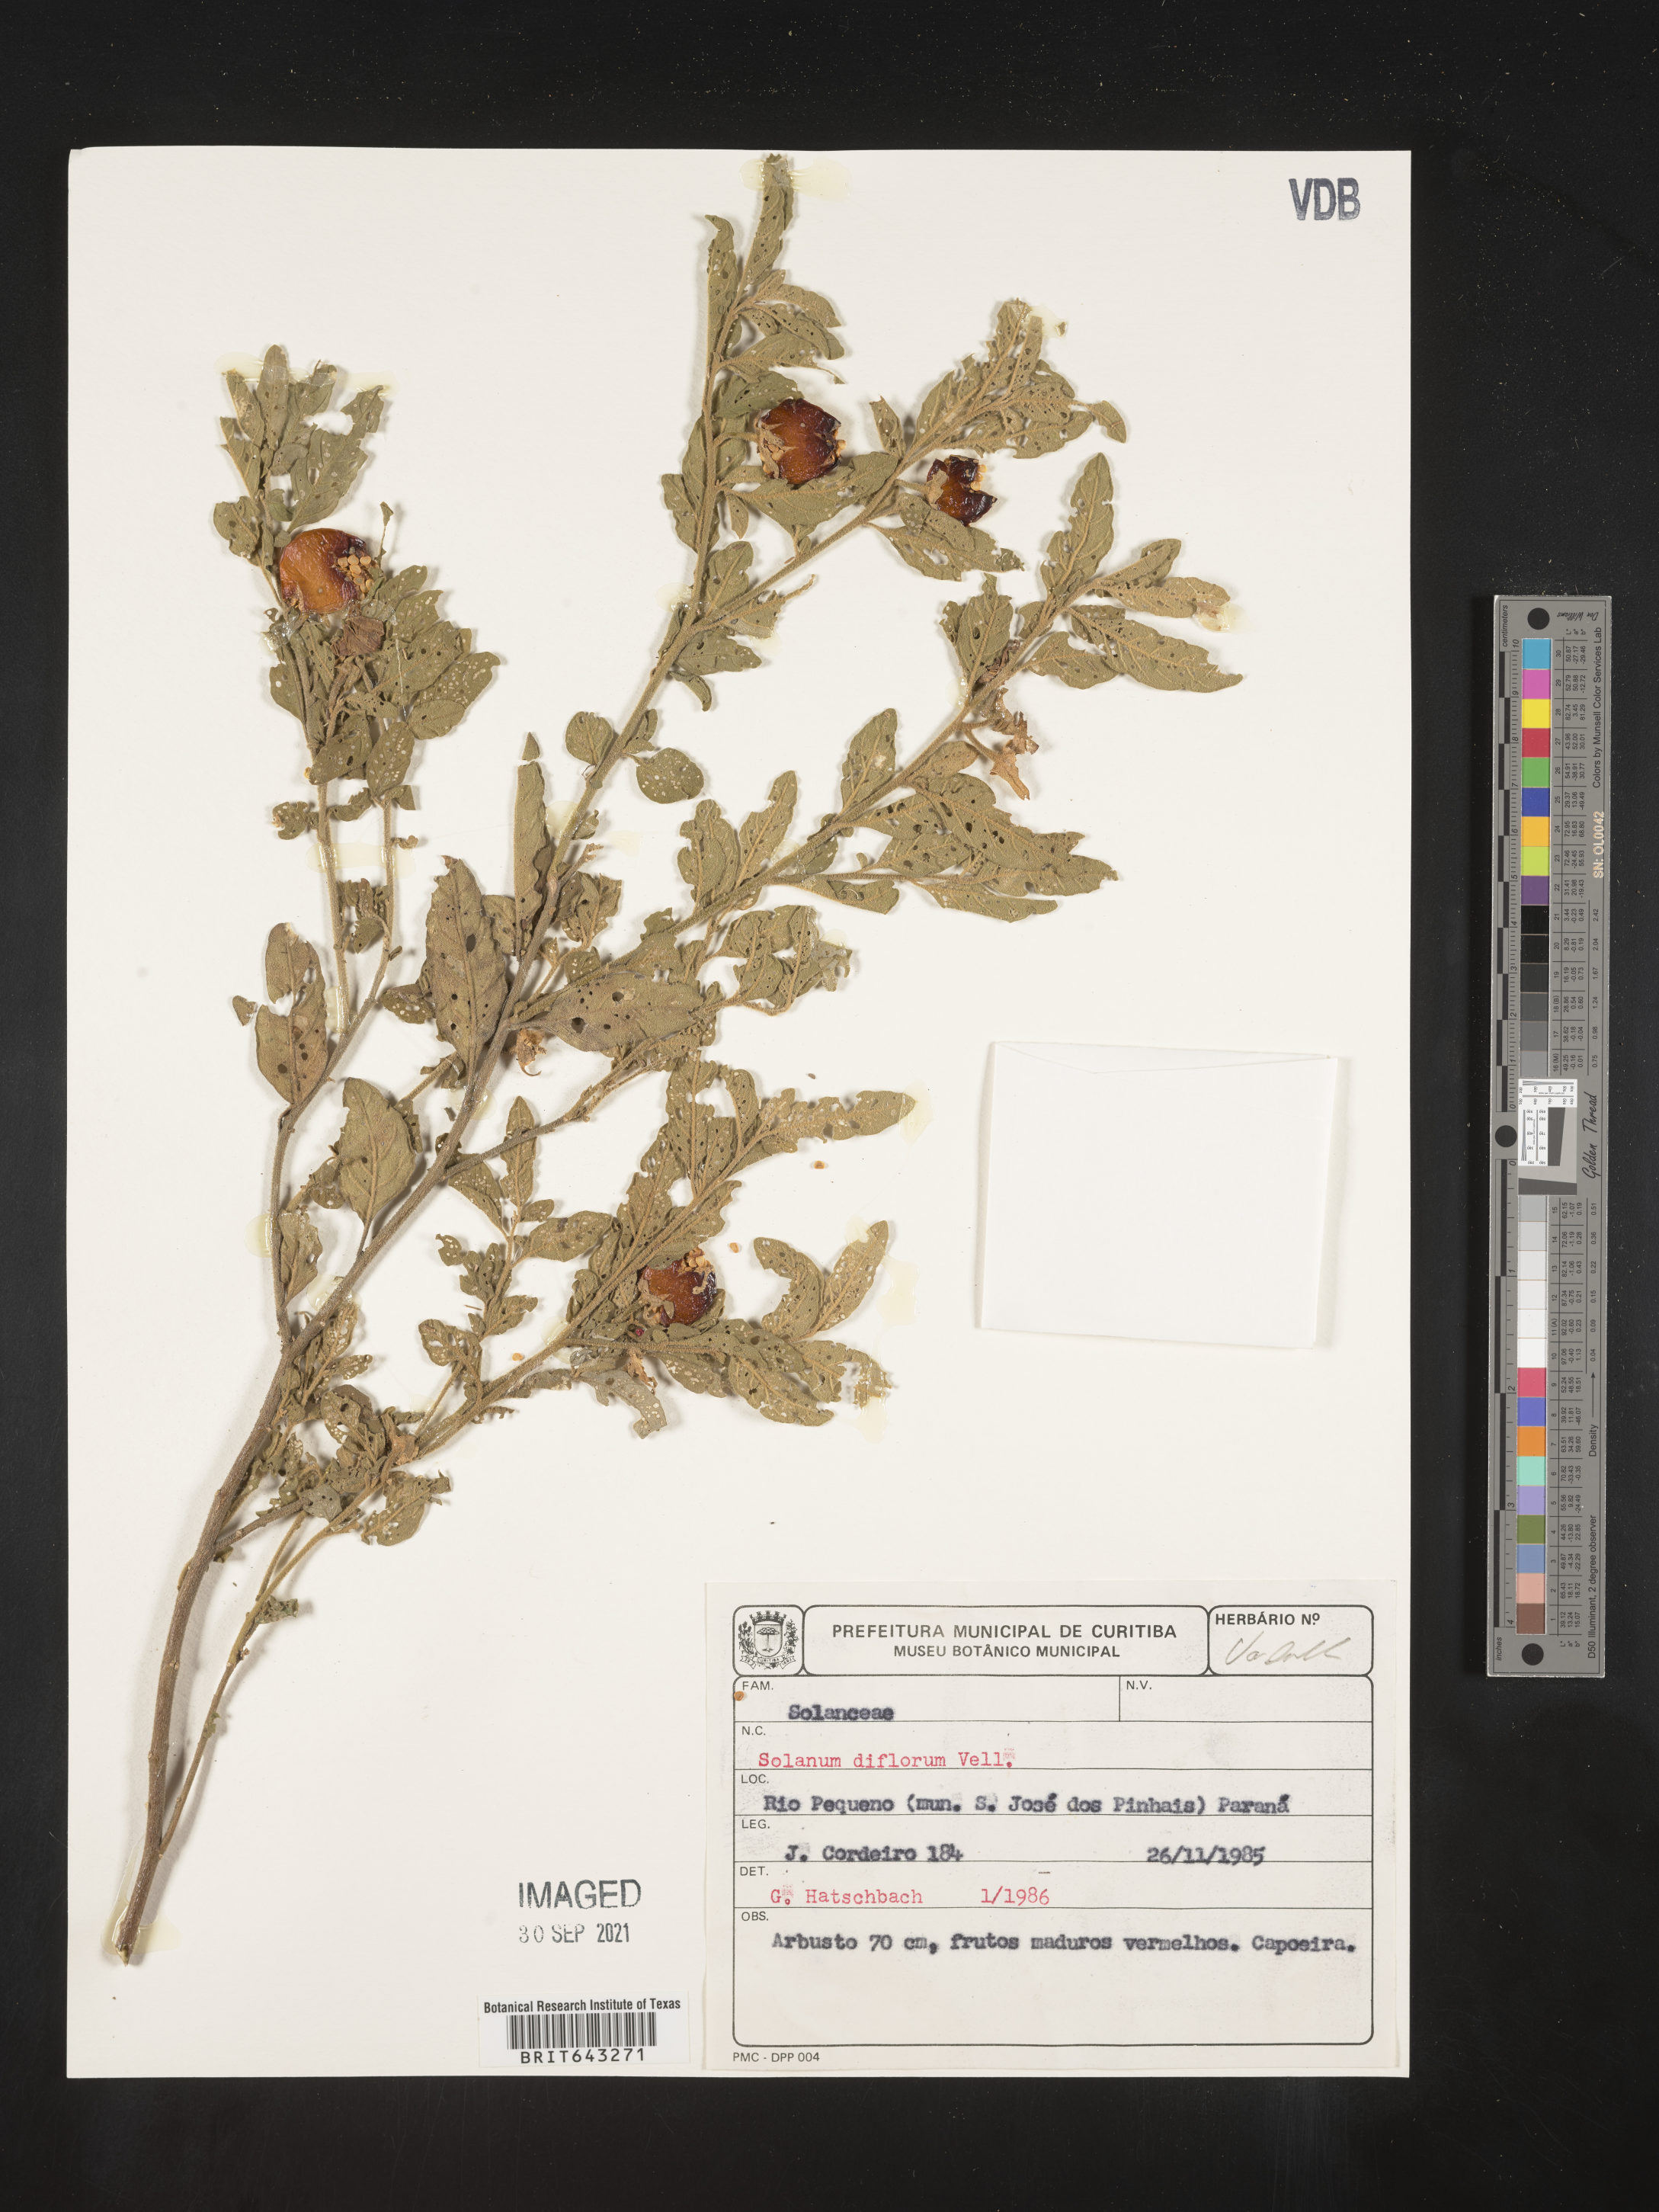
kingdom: Plantae
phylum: Tracheophyta
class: Magnoliopsida
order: Solanales
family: Solanaceae
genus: Solanum
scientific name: Solanum
